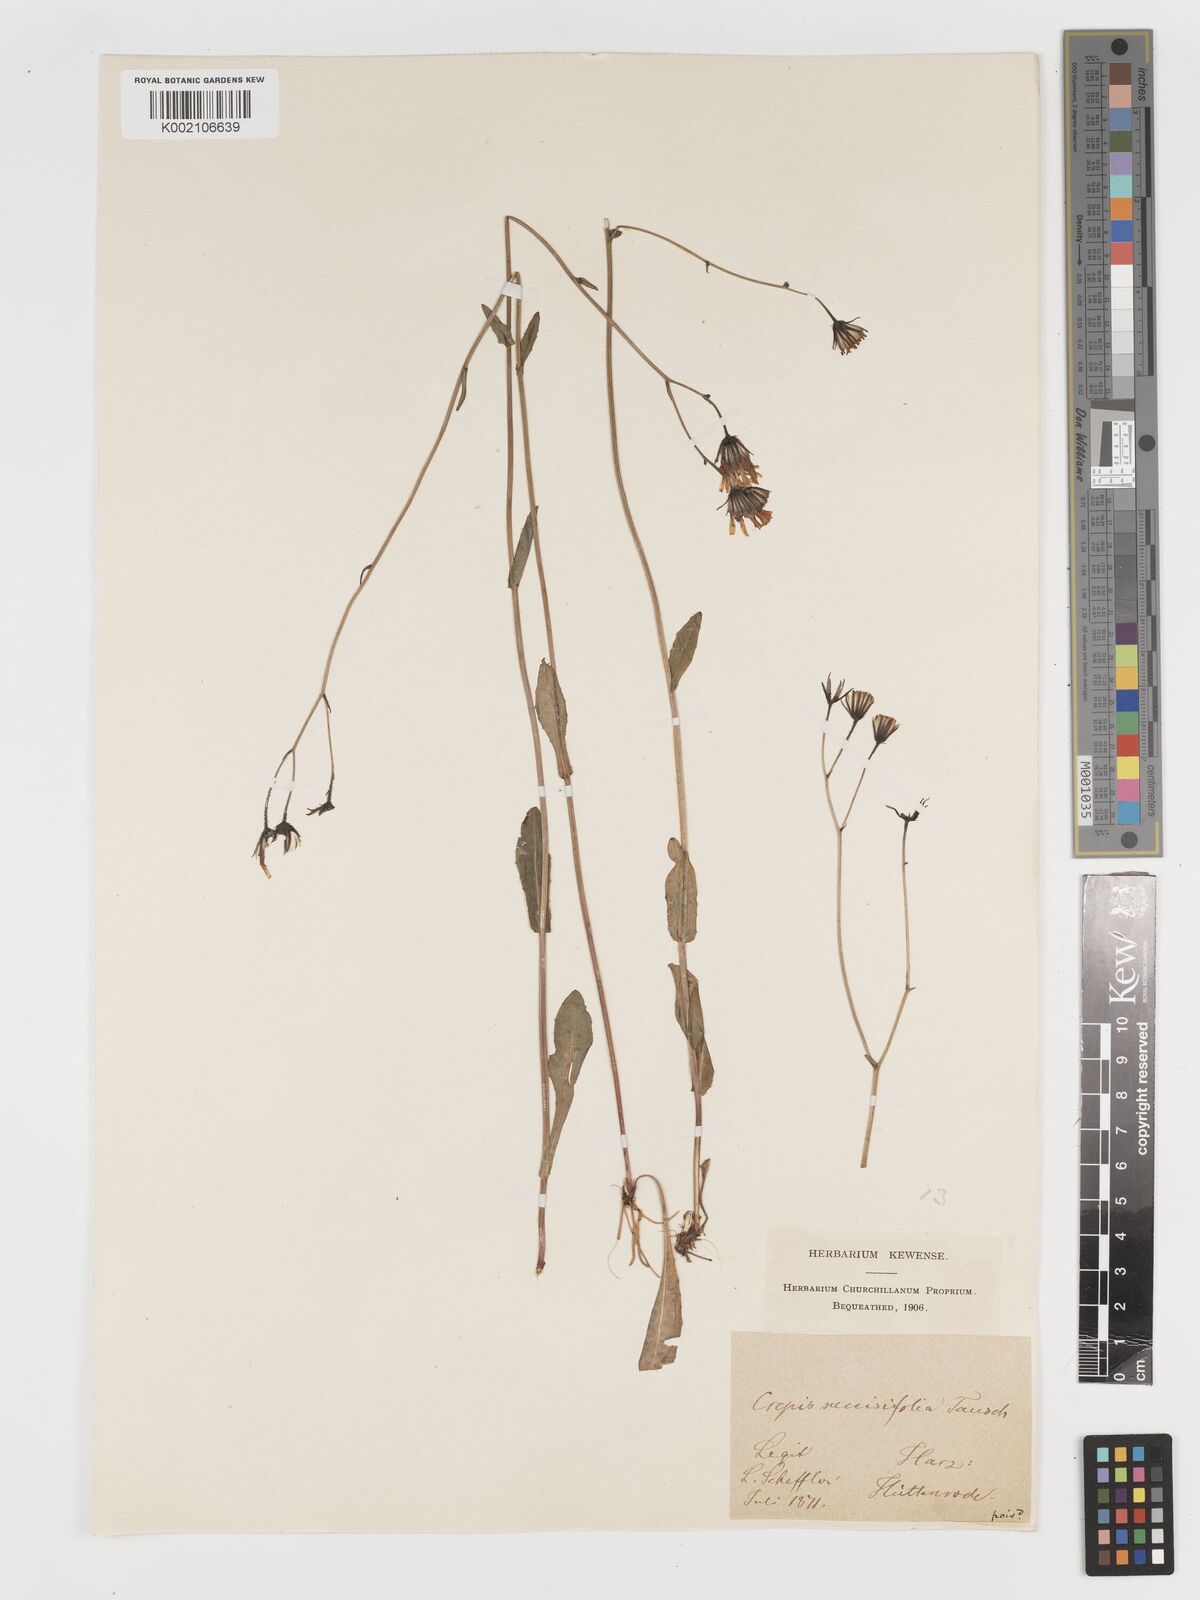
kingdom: Plantae
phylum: Tracheophyta
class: Magnoliopsida
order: Asterales
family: Asteraceae
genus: Crepis
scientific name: Crepis mollis
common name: Northern hawk's-beard
